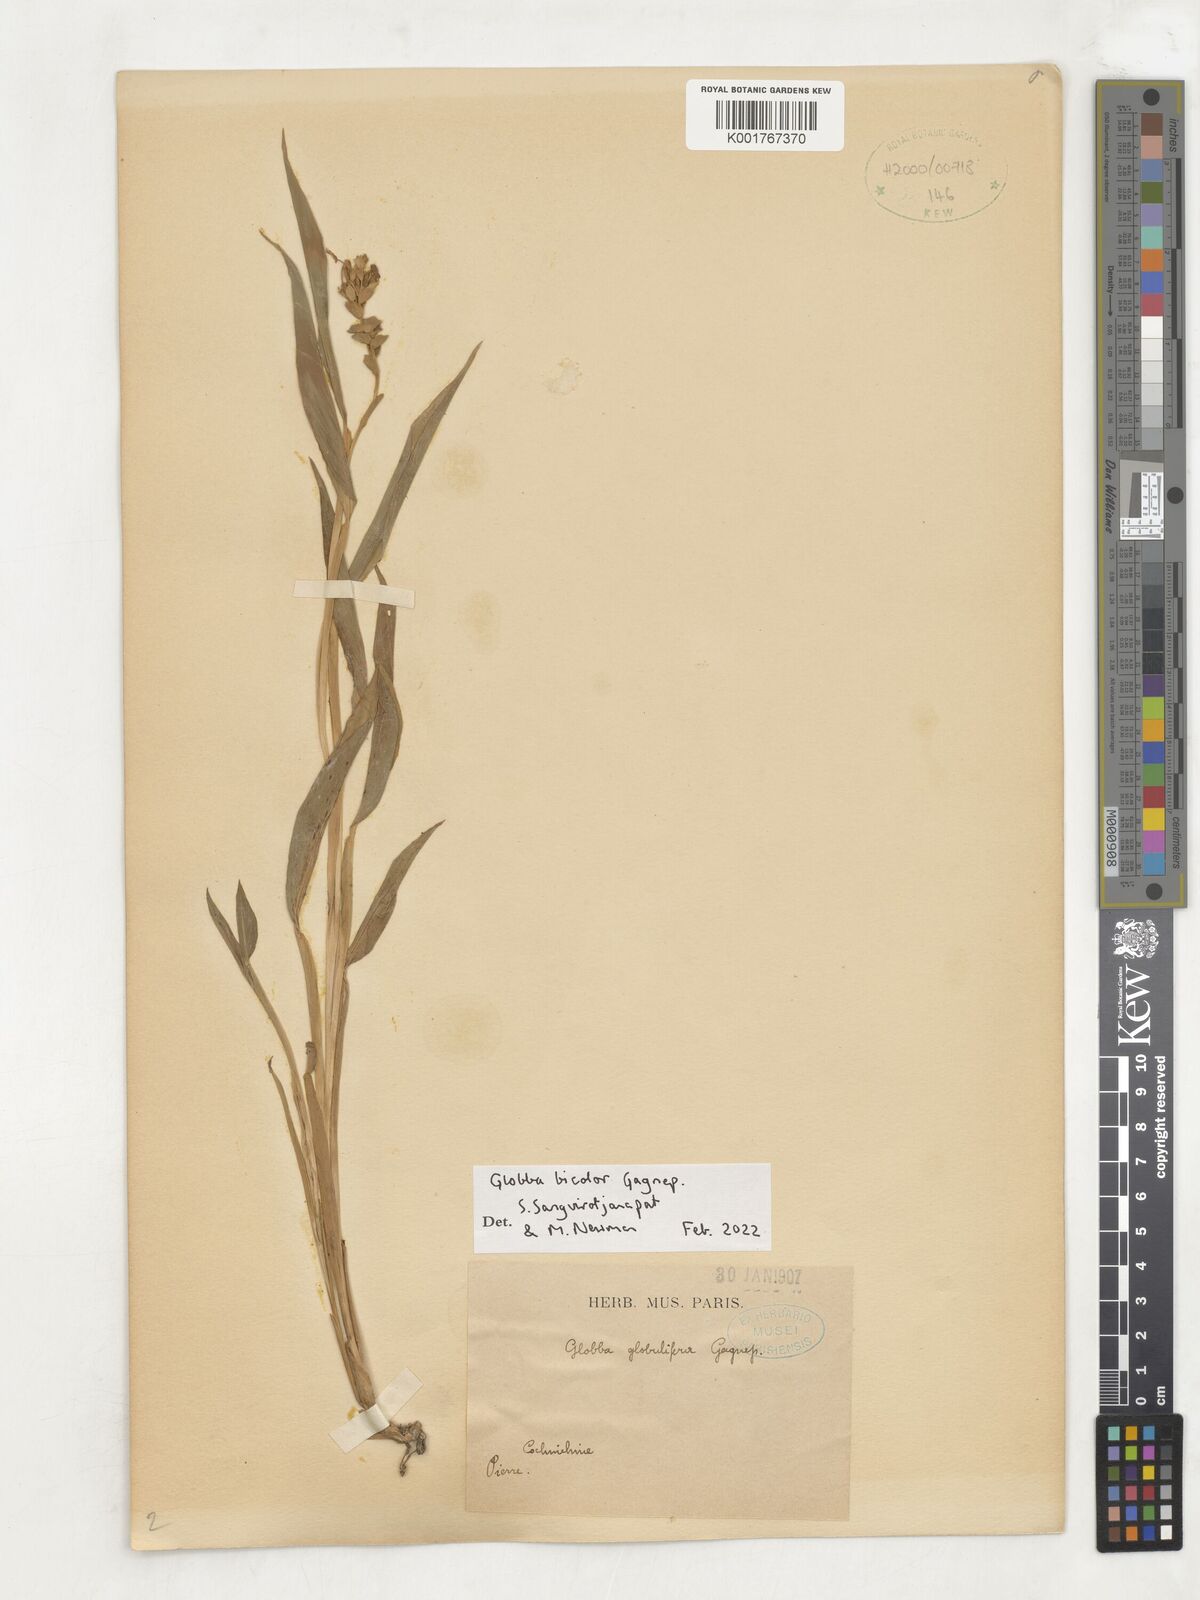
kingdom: Plantae
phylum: Tracheophyta
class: Liliopsida
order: Zingiberales
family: Zingiberaceae
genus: Globba
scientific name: Globba bicolor
